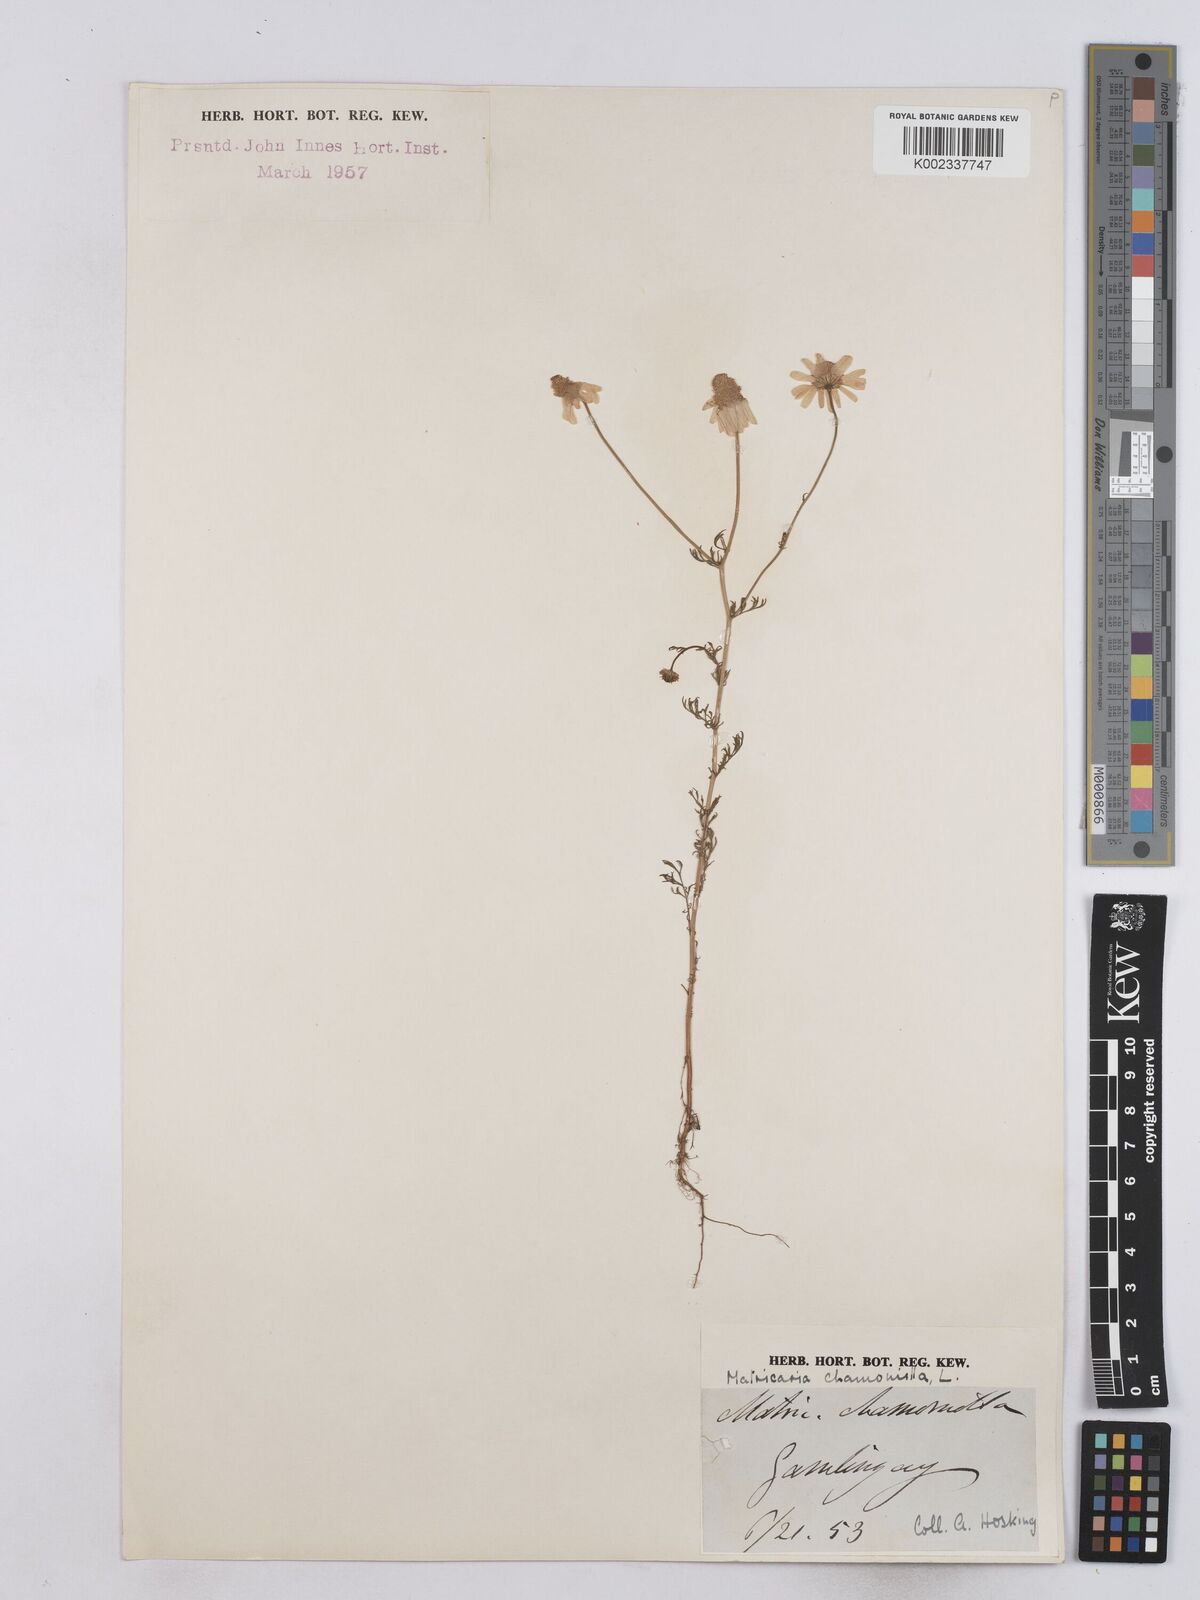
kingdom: Plantae
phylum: Tracheophyta
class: Magnoliopsida
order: Asterales
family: Asteraceae
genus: Matricaria
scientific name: Matricaria chamomilla
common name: Scented mayweed
